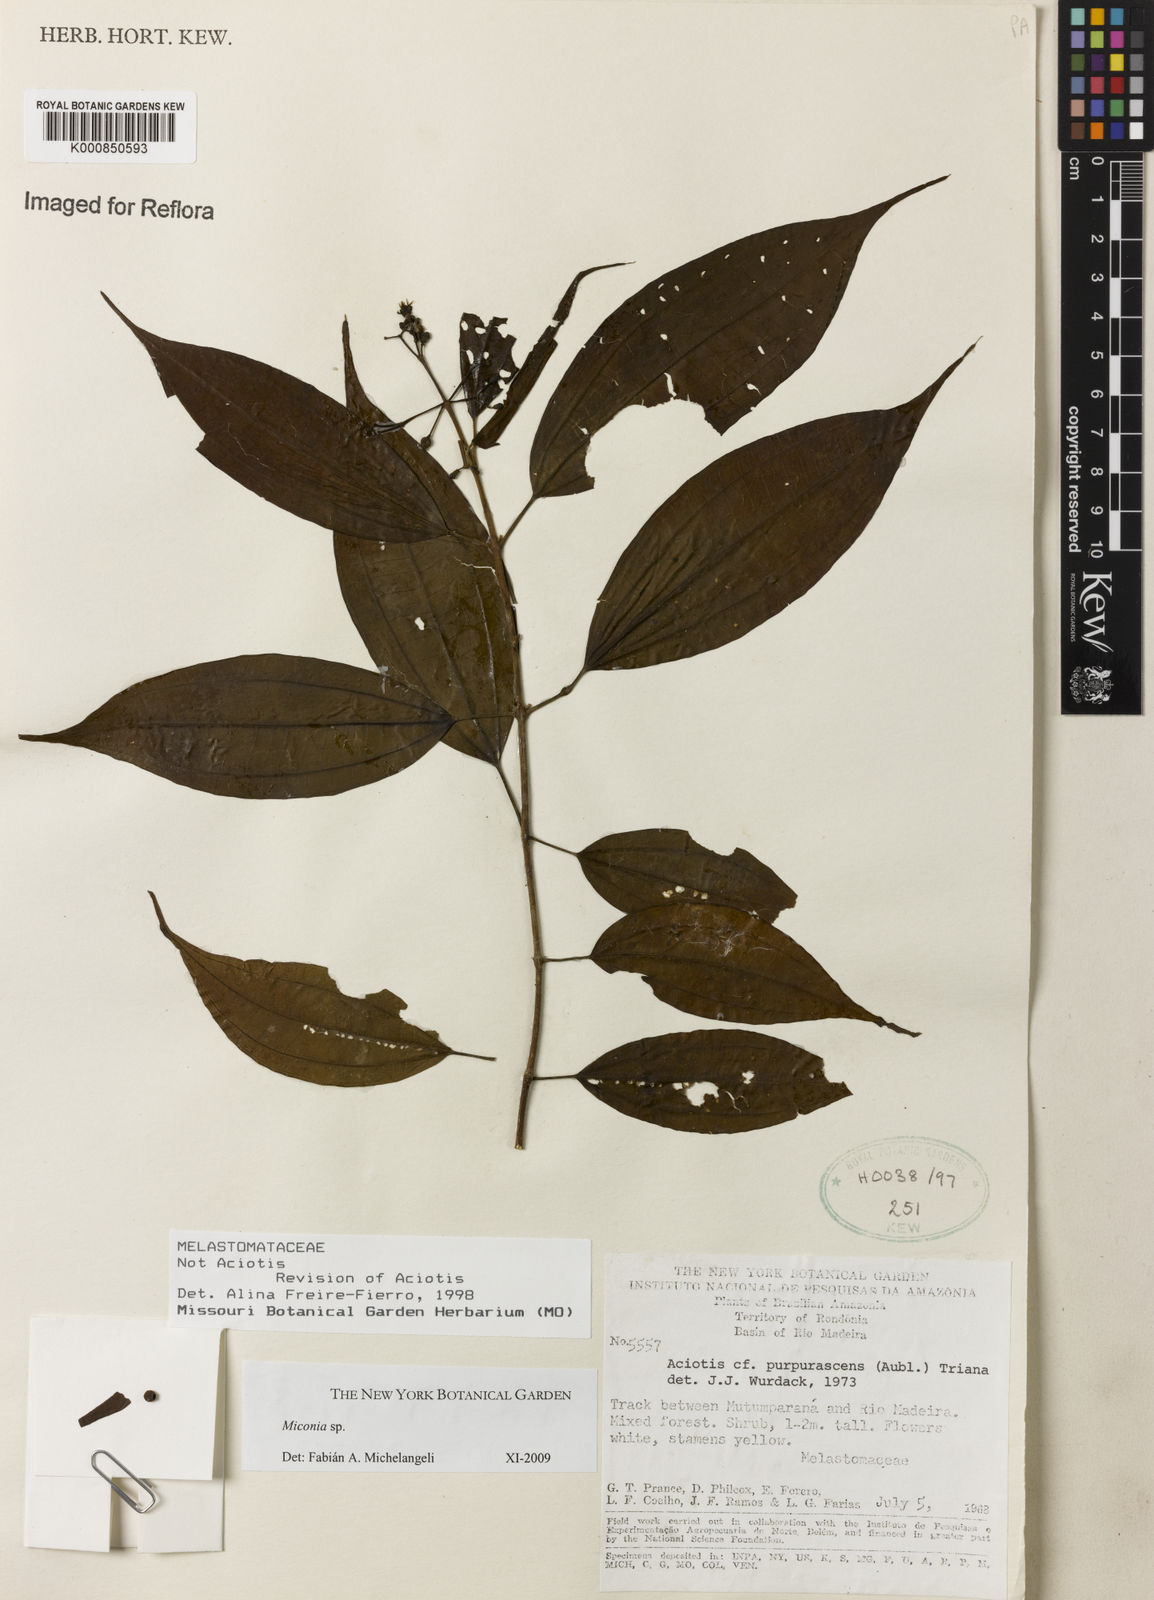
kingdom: Plantae
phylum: Tracheophyta
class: Magnoliopsida
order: Myrtales
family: Melastomataceae
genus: Miconia
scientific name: Miconia
